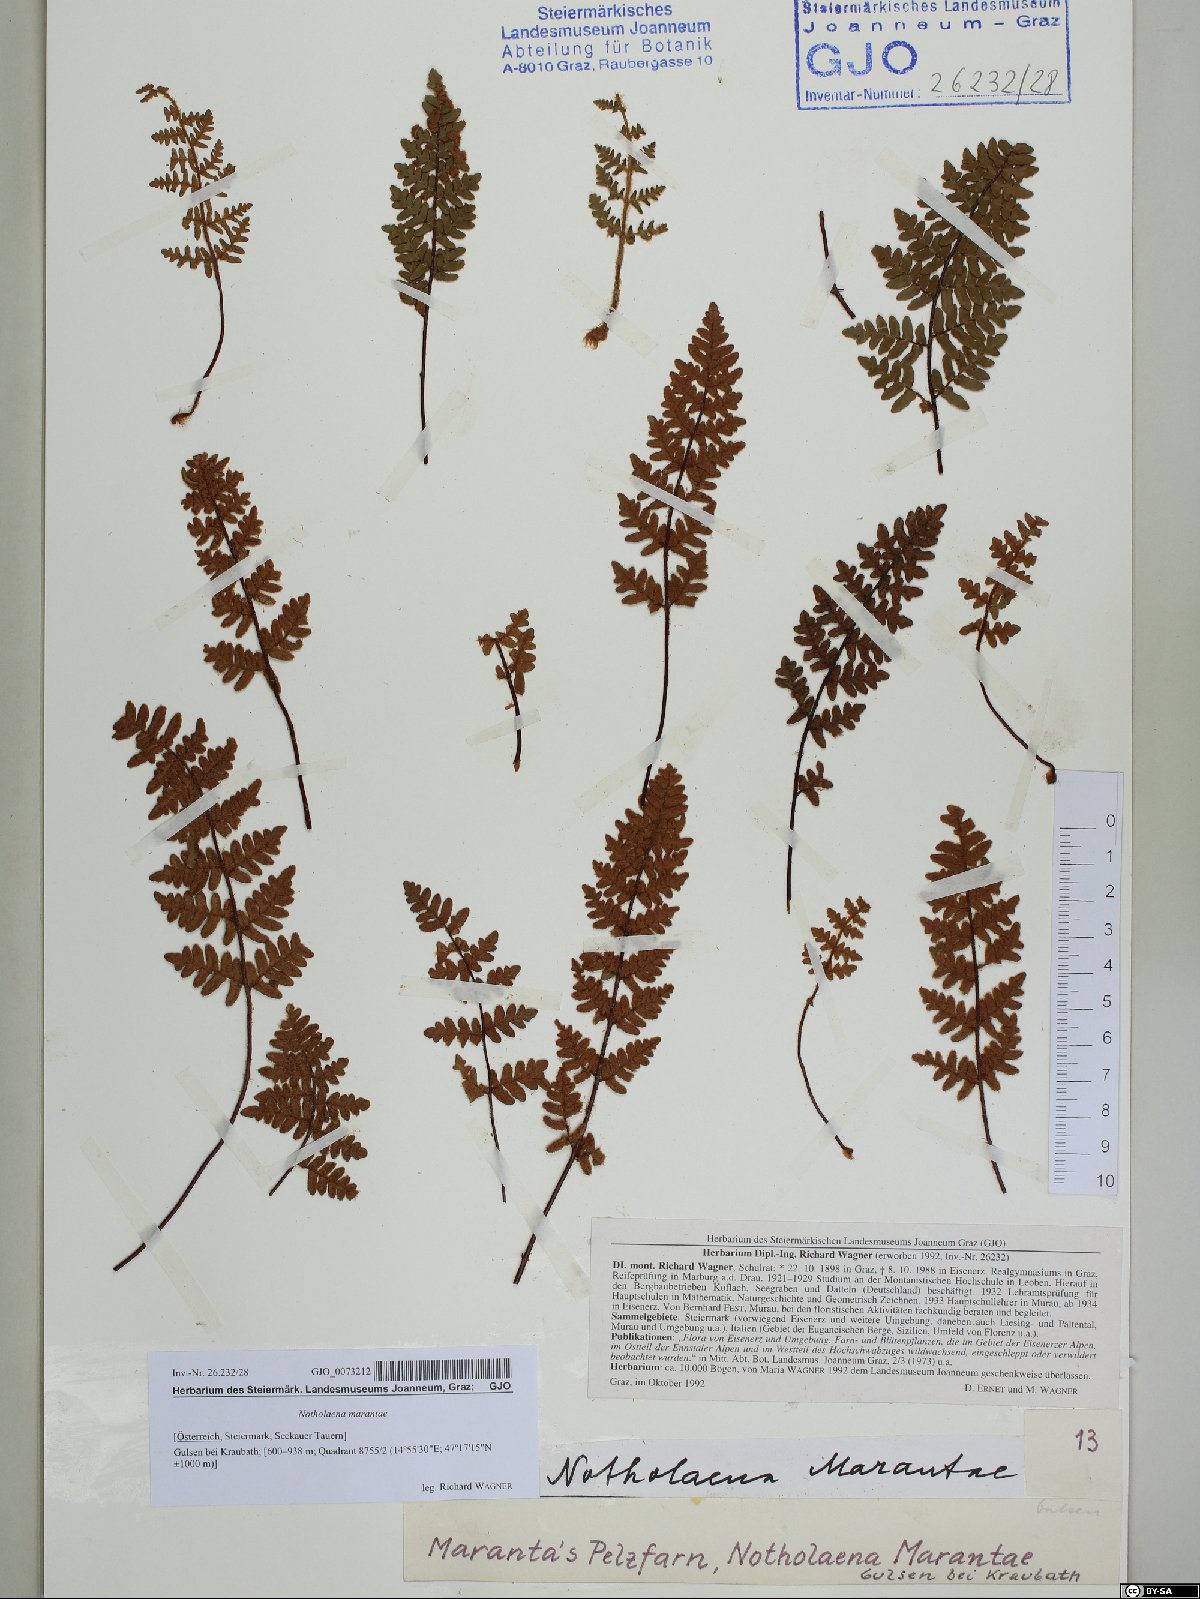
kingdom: Plantae
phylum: Tracheophyta
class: Polypodiopsida
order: Polypodiales
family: Pteridaceae
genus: Paragymnopteris
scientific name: Paragymnopteris marantae
